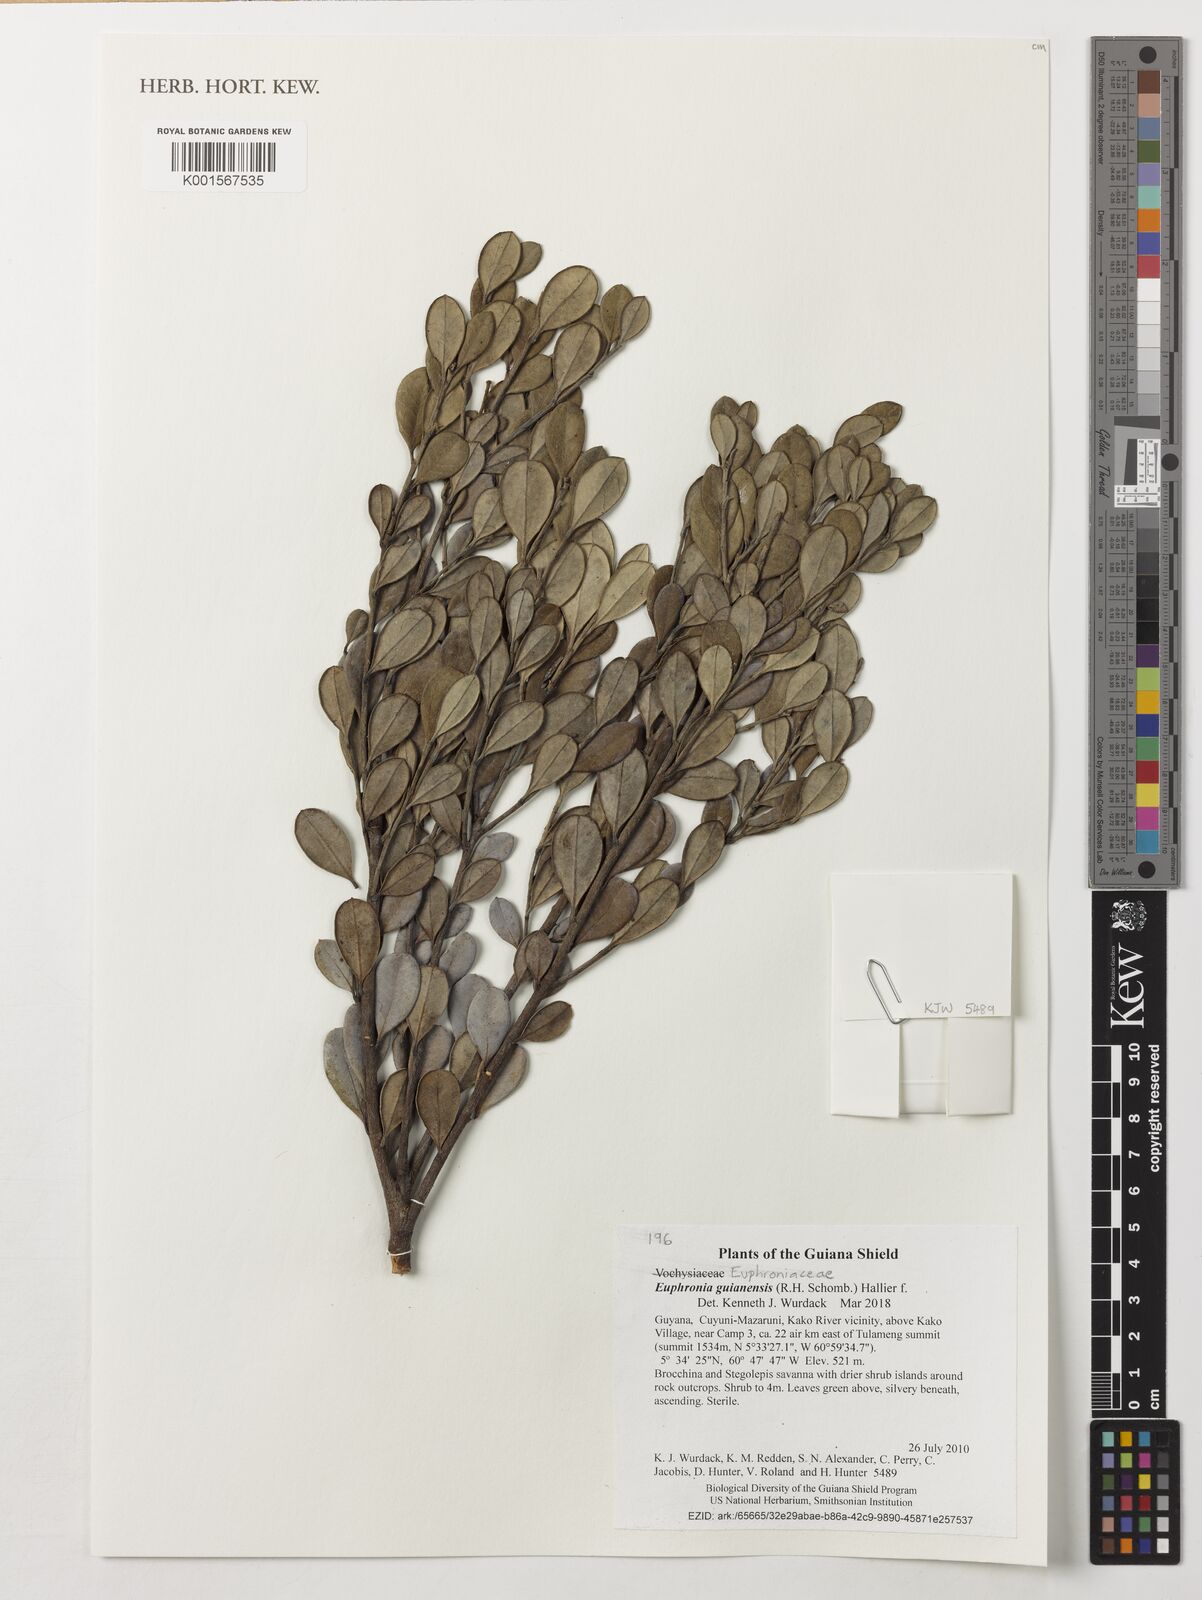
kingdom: Plantae
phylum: Tracheophyta
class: Magnoliopsida
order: Malpighiales
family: Euphroniaceae
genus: Euphronia
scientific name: Euphronia guianensis
